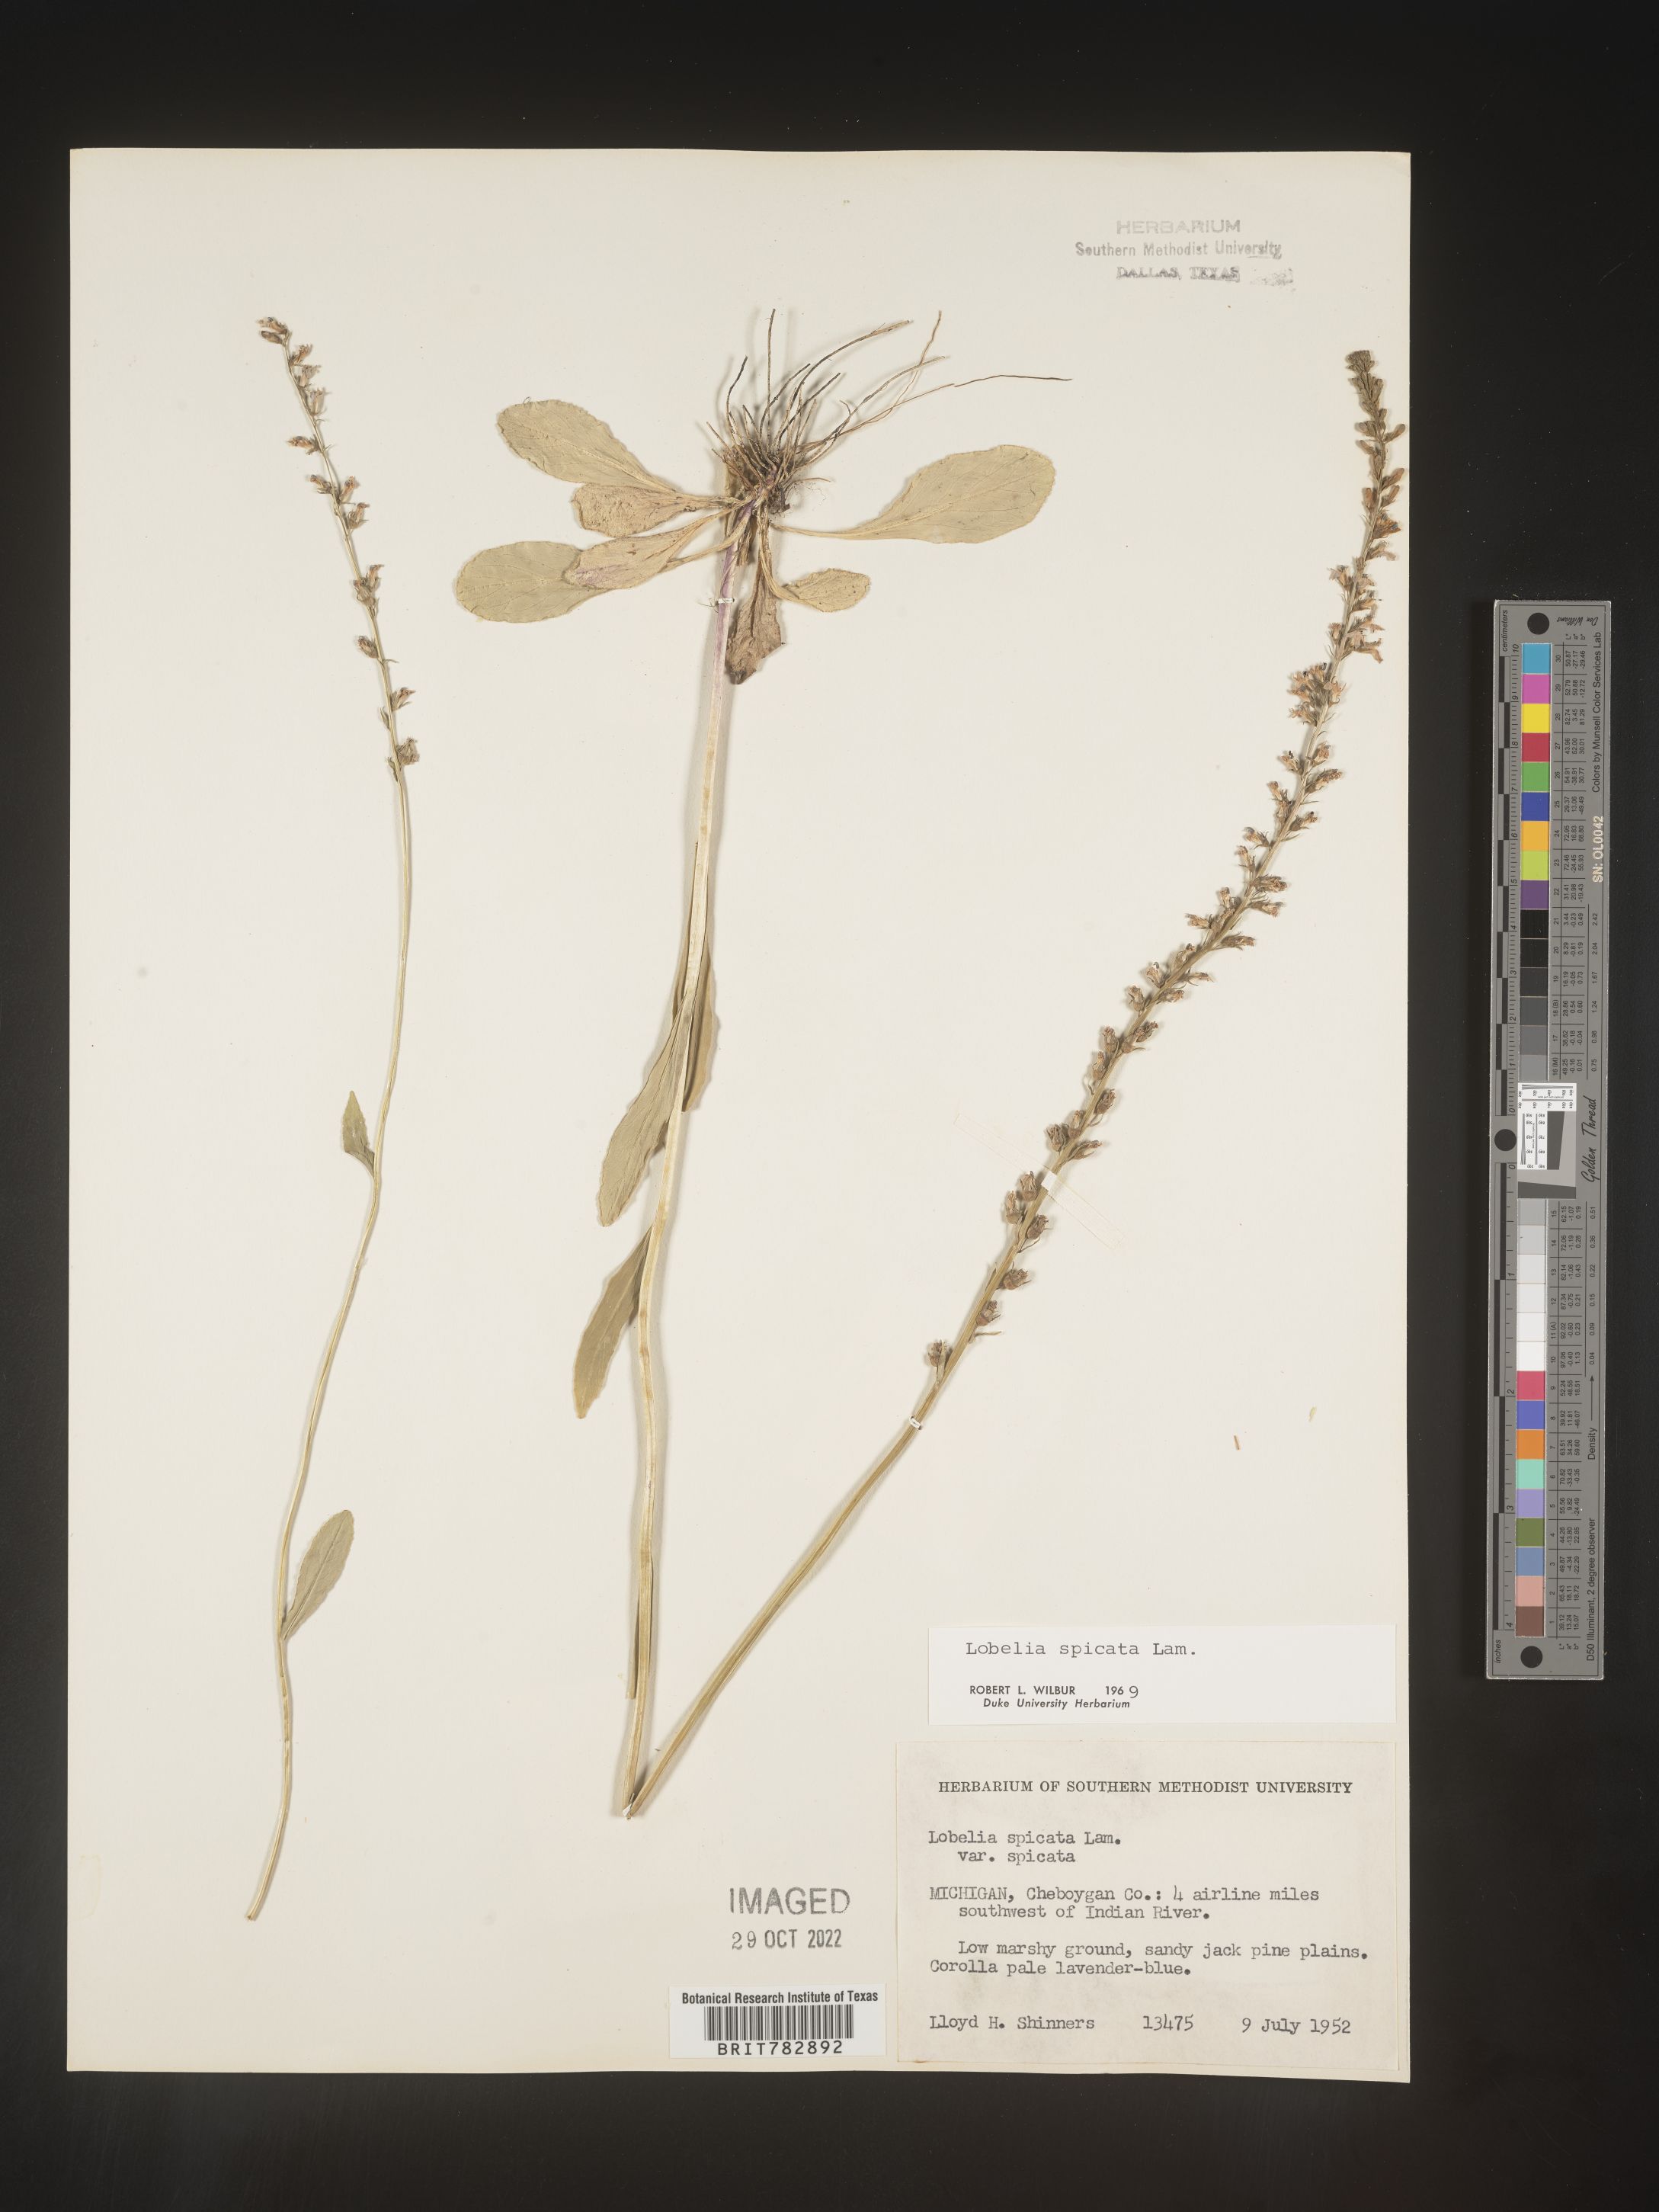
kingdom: Plantae
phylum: Tracheophyta
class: Magnoliopsida
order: Asterales
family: Campanulaceae
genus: Lobelia
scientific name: Lobelia spicata
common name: Pale-spike lobelia
